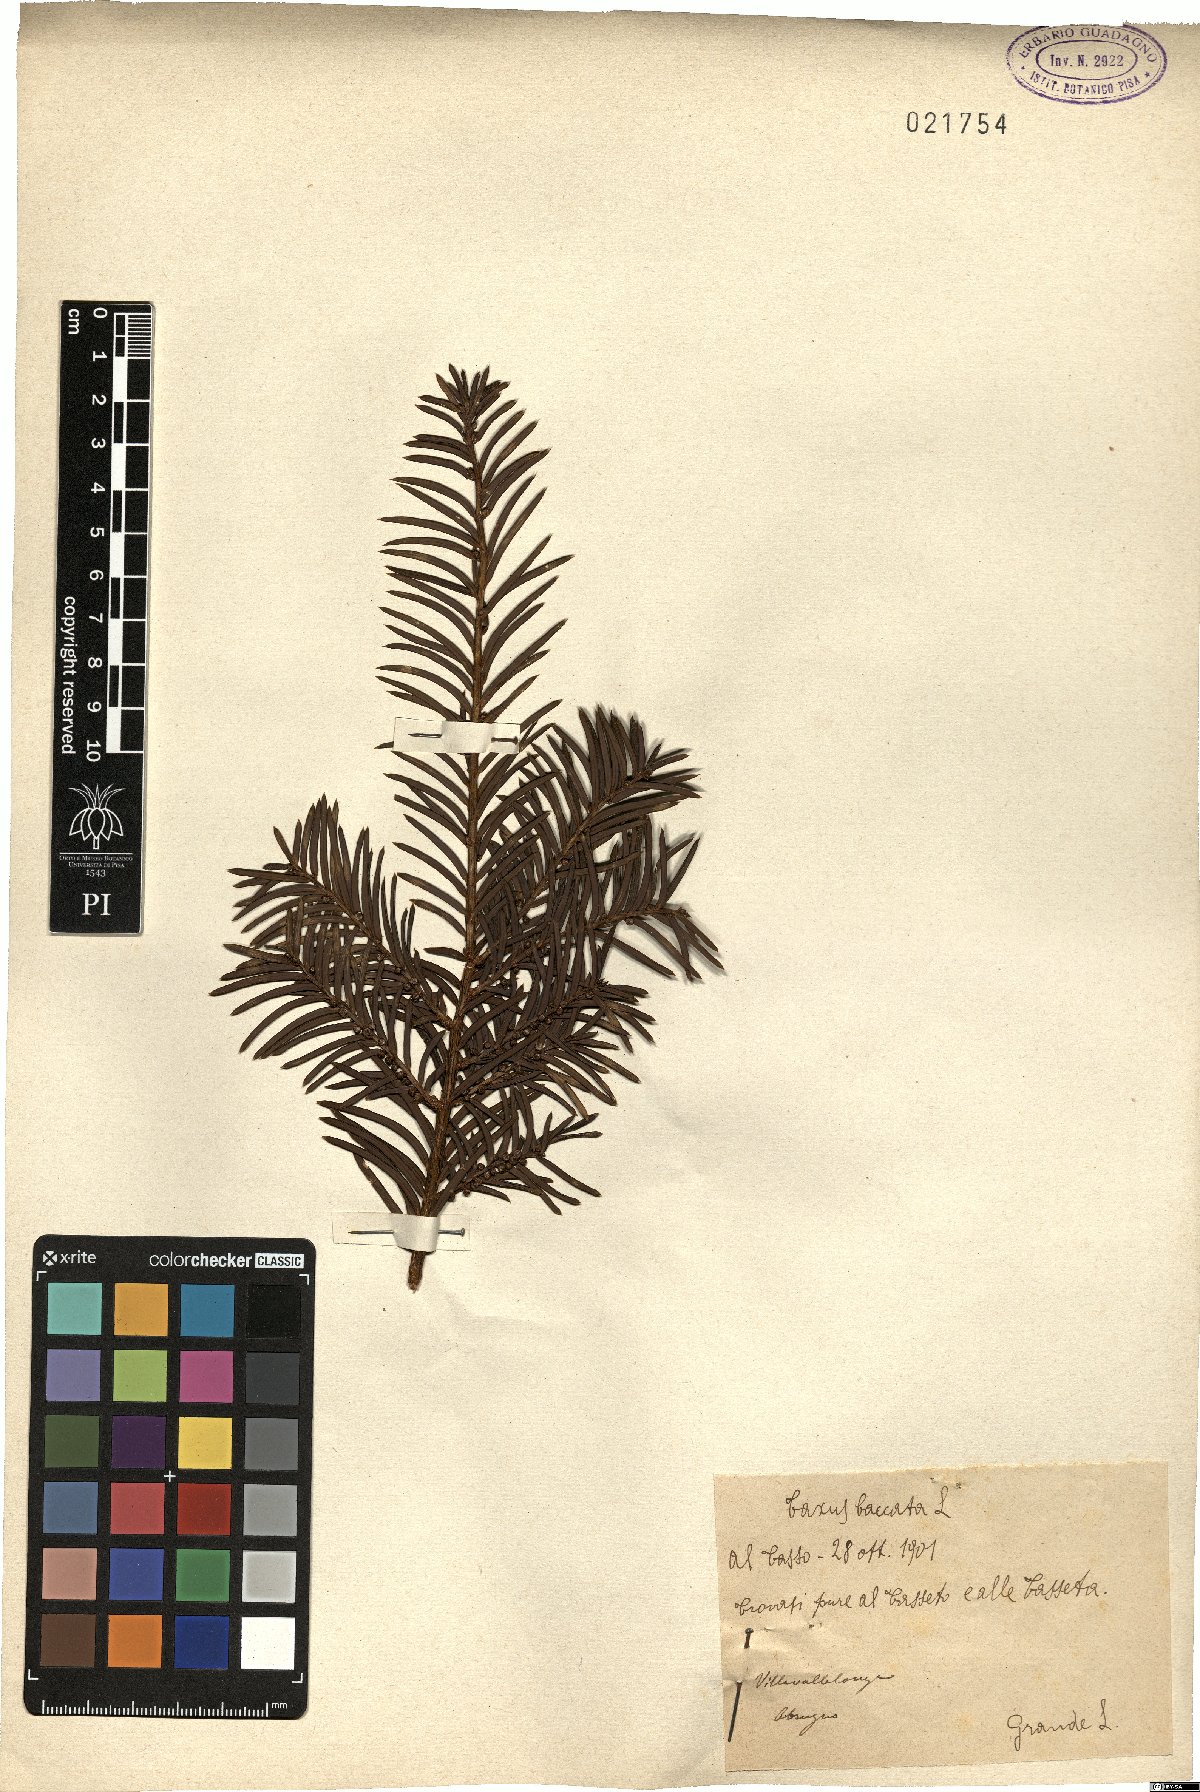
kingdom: Plantae
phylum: Tracheophyta
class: Pinopsida
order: Pinales
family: Taxaceae
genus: Taxus
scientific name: Taxus baccata
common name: Yew
